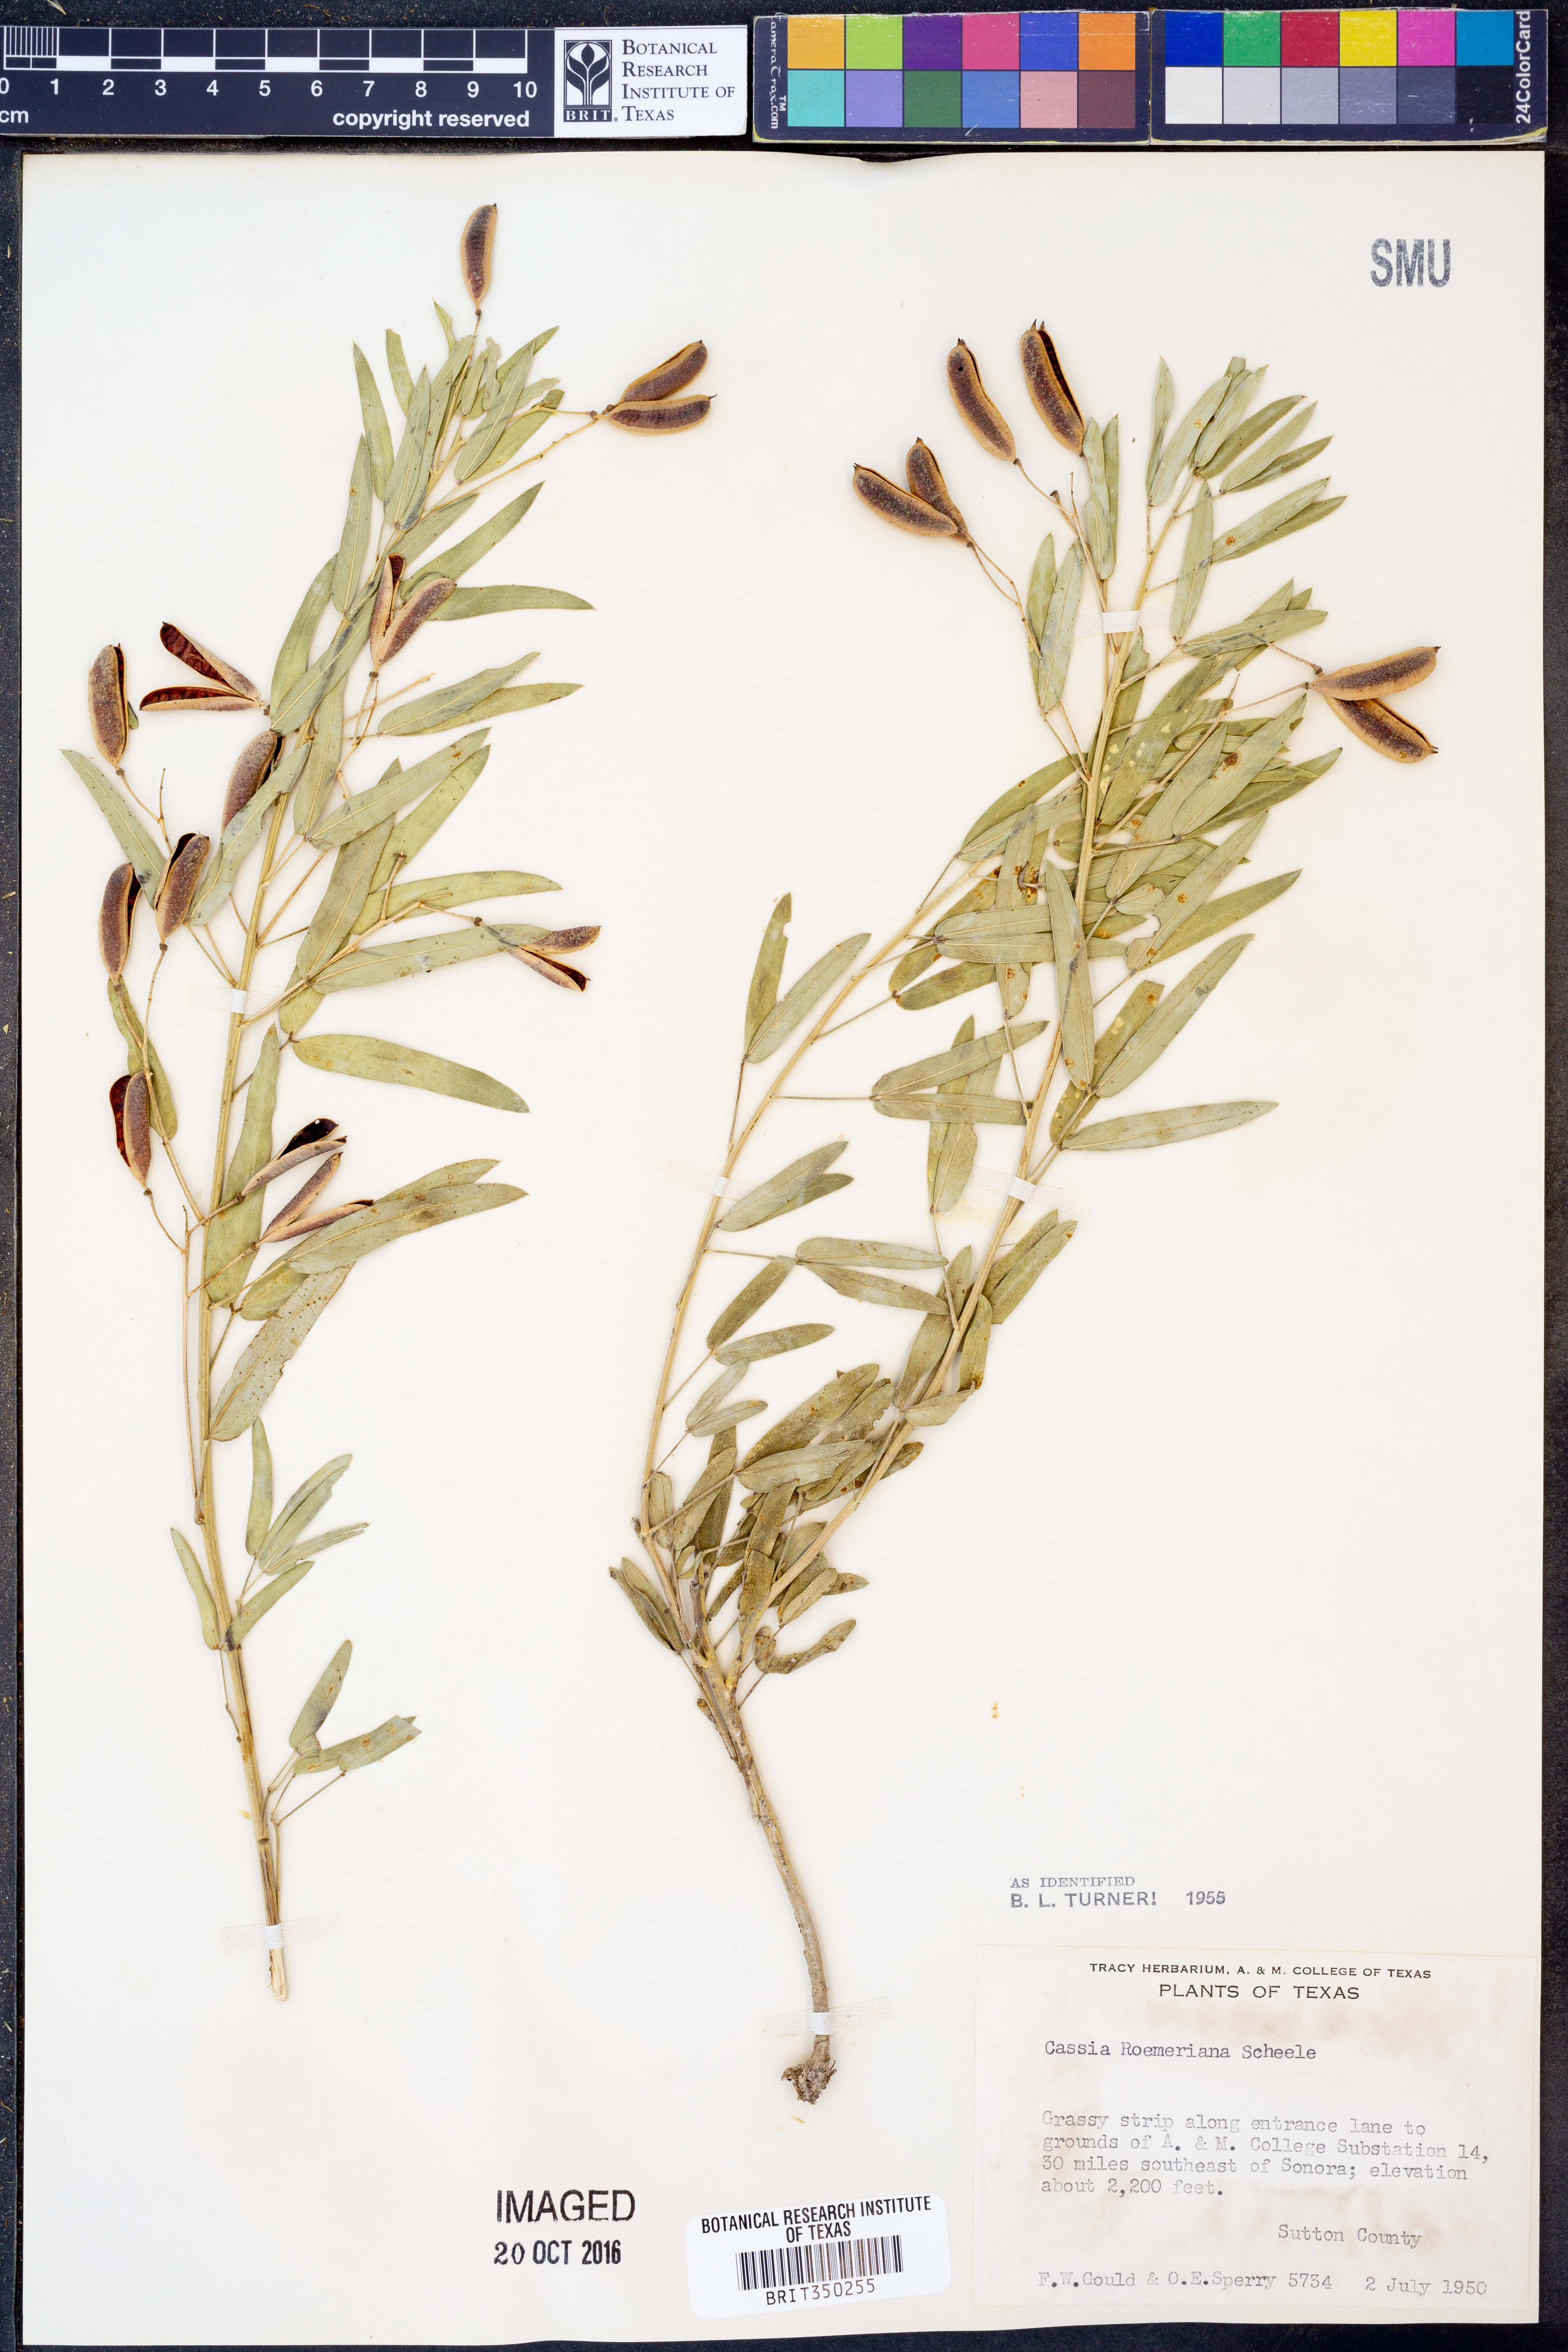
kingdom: Plantae
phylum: Tracheophyta
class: Magnoliopsida
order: Fabales
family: Fabaceae
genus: Senna
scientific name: Senna roemeriana
